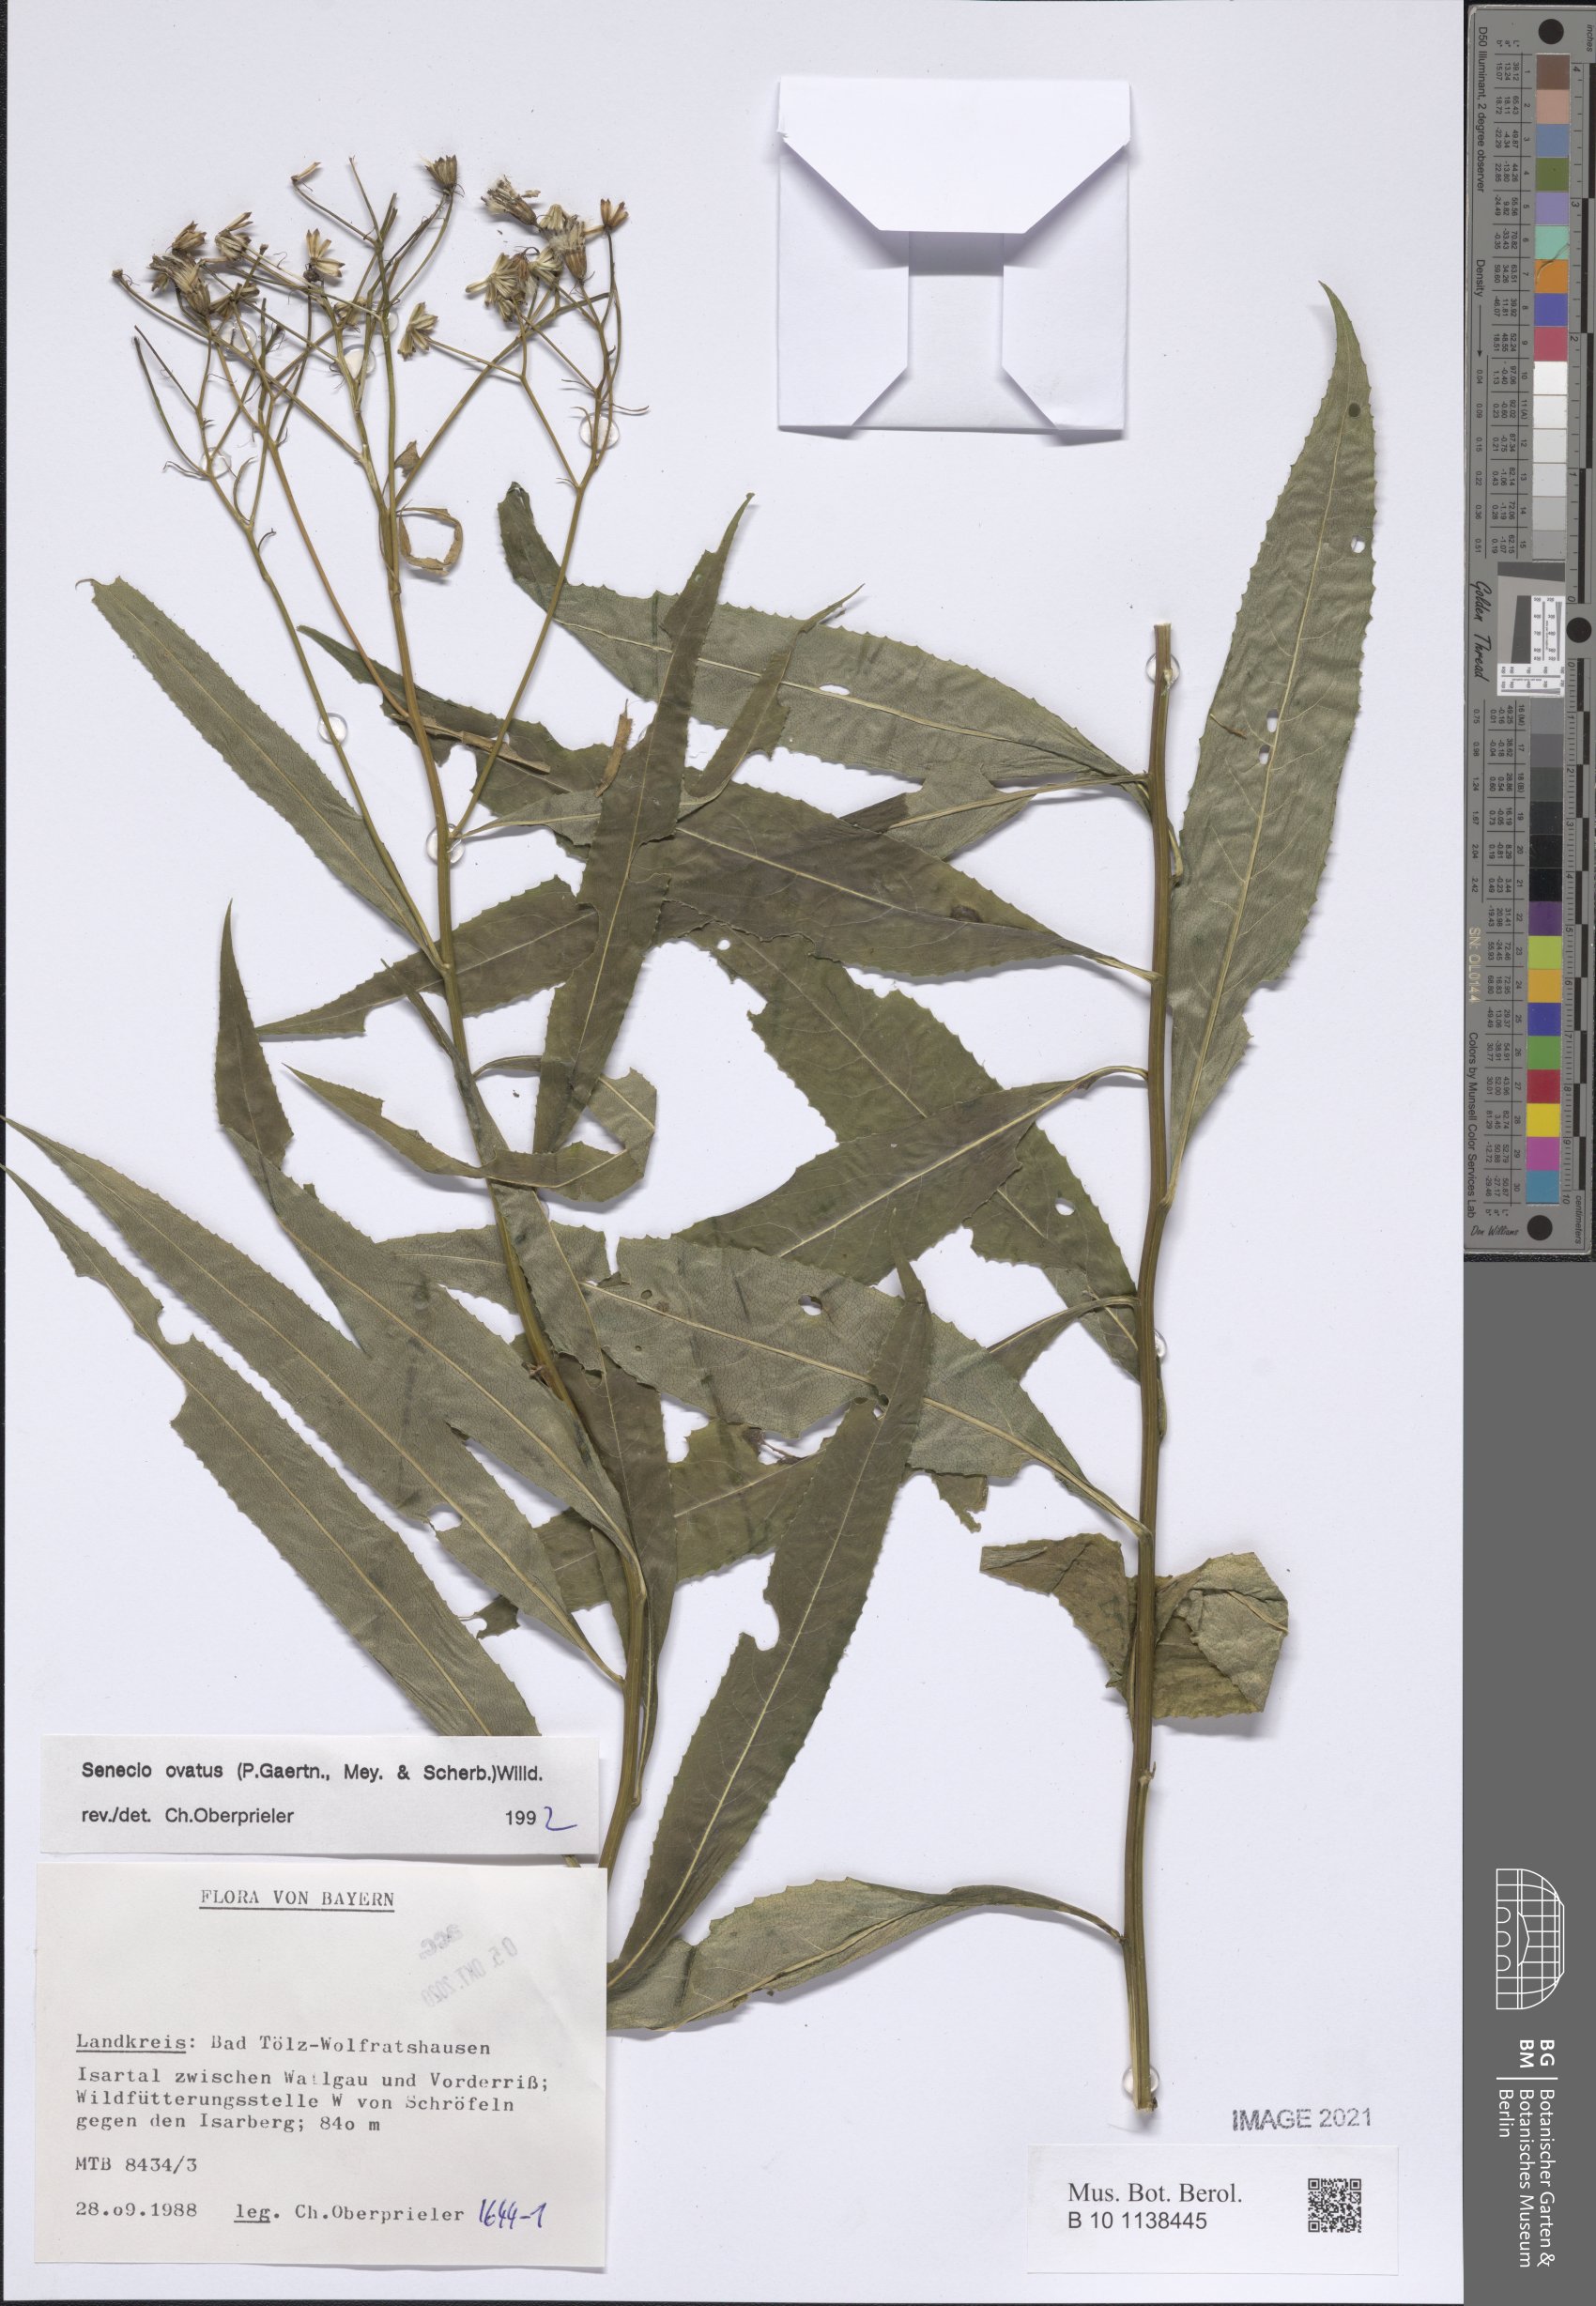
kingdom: Plantae
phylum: Tracheophyta
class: Magnoliopsida
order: Asterales
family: Asteraceae
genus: Senecio
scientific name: Senecio ovatus
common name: Wood ragwort
